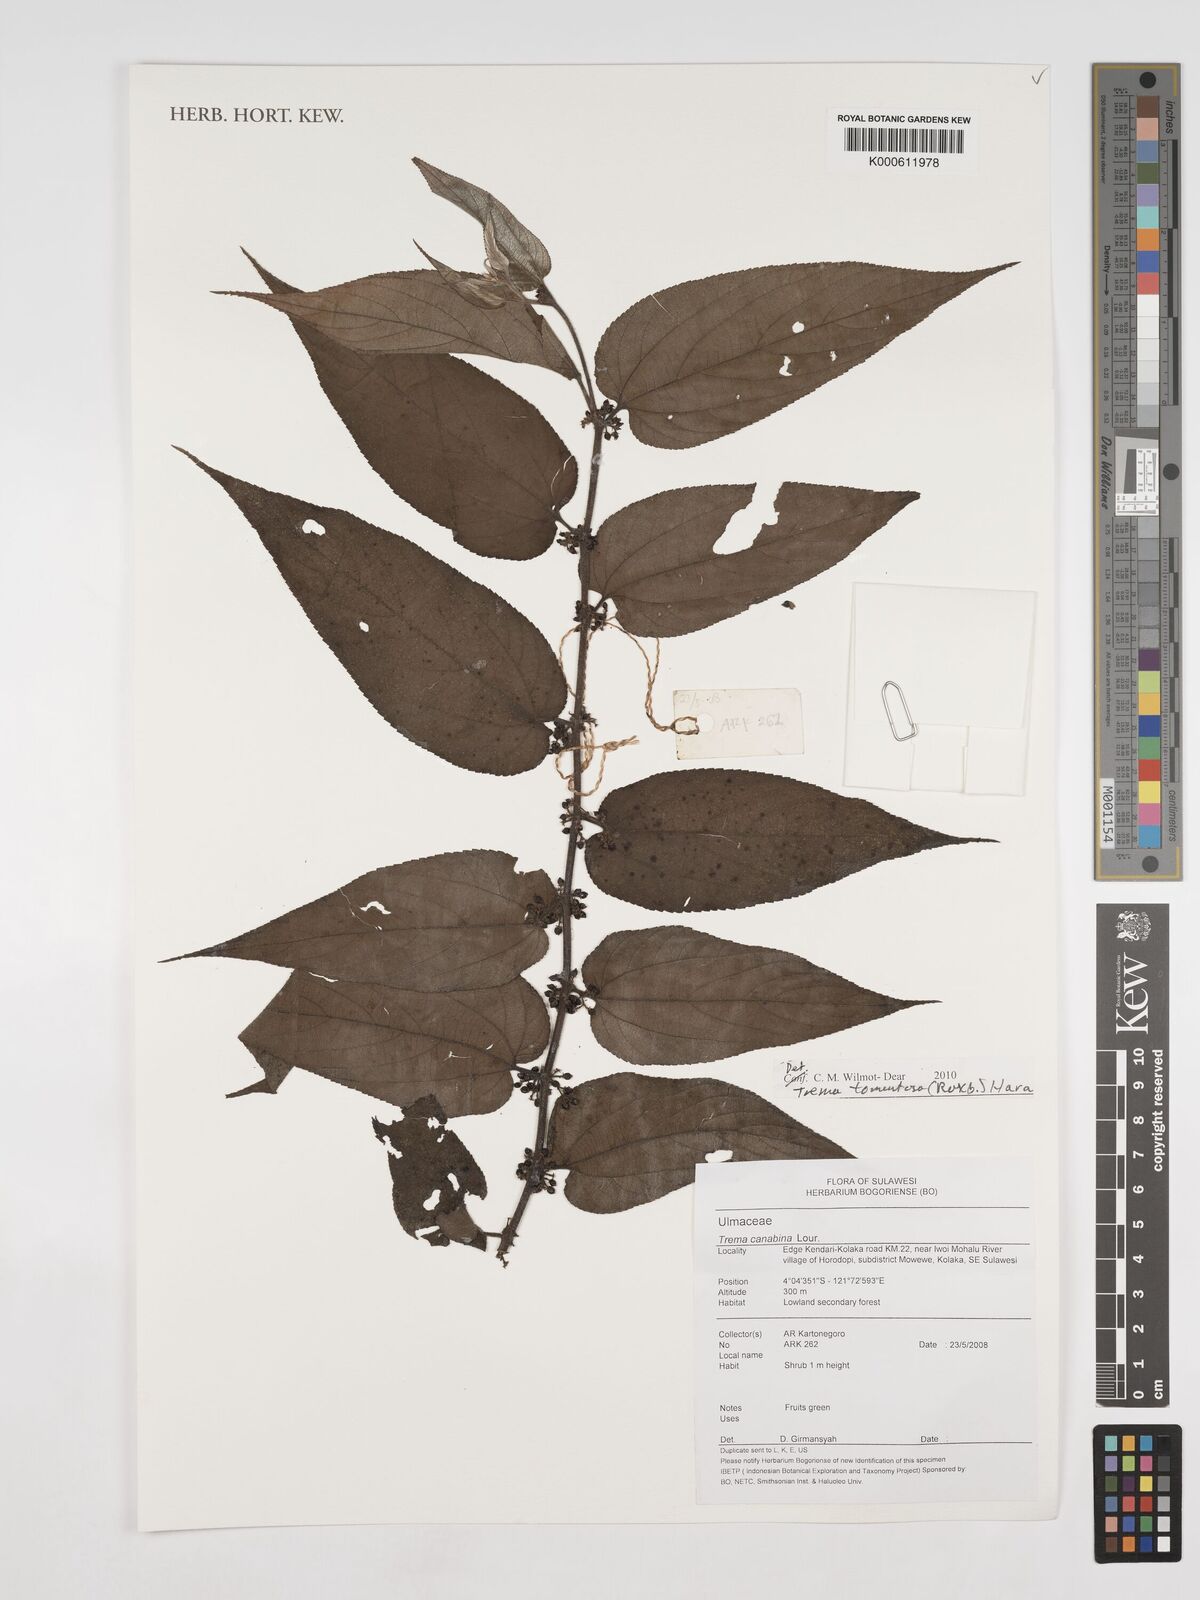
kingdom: Plantae
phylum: Tracheophyta
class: Magnoliopsida
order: Rosales
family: Cannabaceae
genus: Trema
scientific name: Trema tomentosum
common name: Peach-leaf-poisonbush
